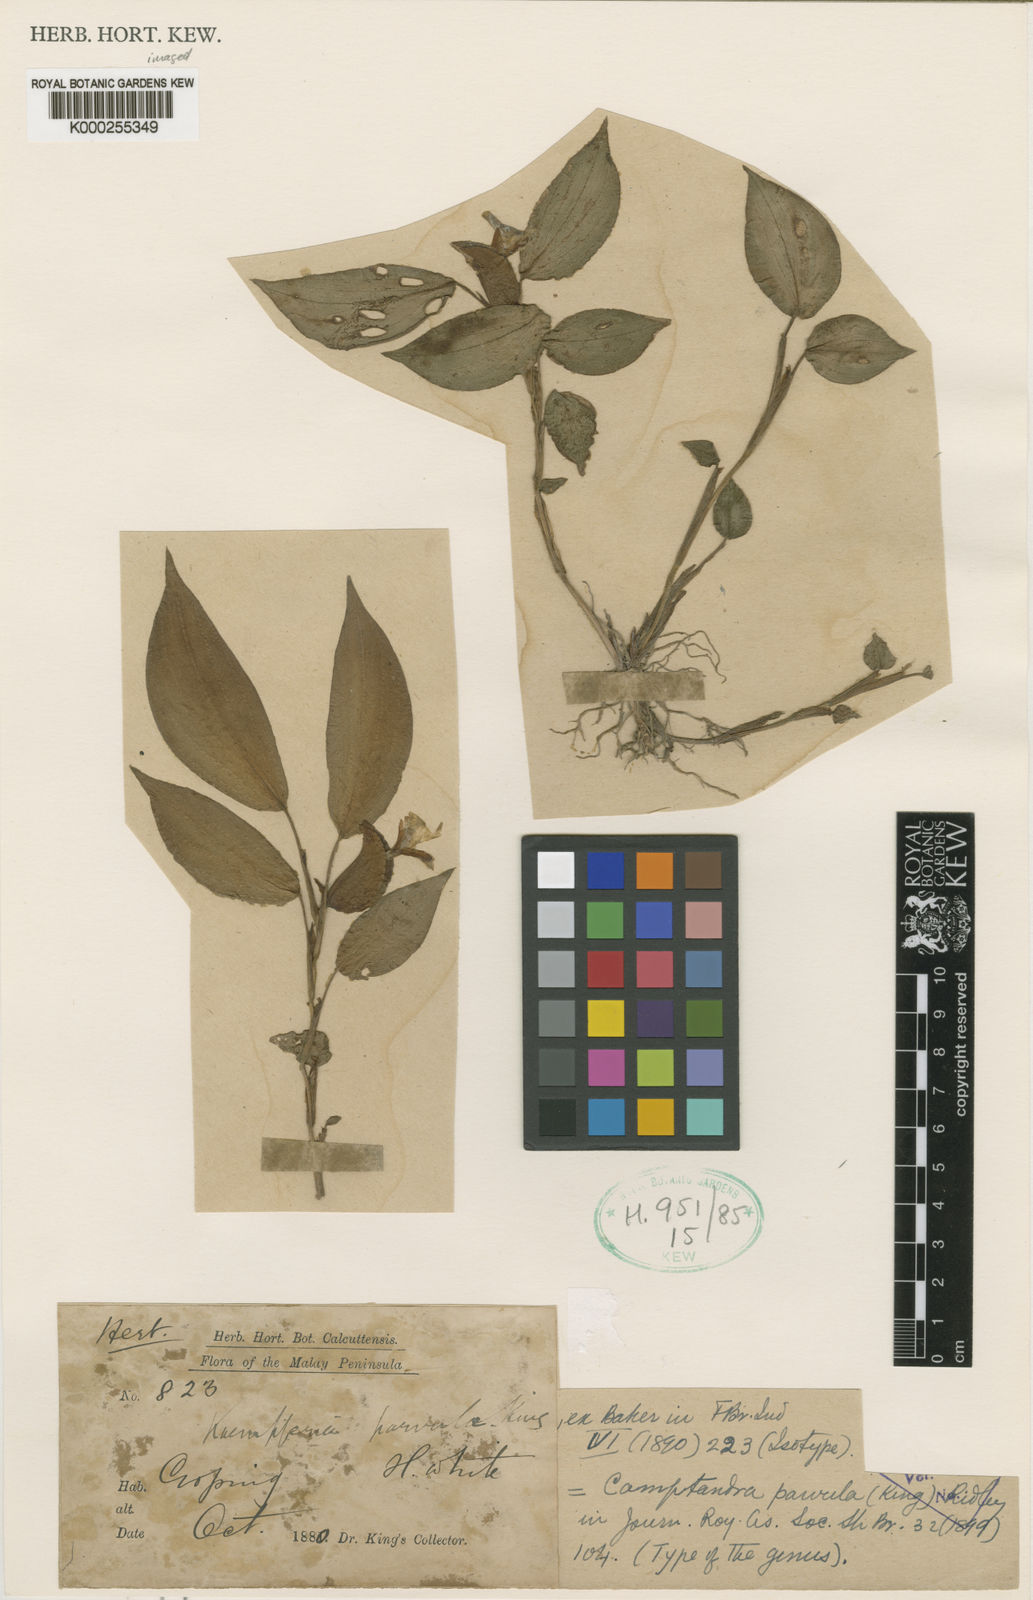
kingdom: Plantae
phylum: Tracheophyta
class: Liliopsida
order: Zingiberales
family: Zingiberaceae
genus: Camptandra
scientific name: Camptandra parvula
